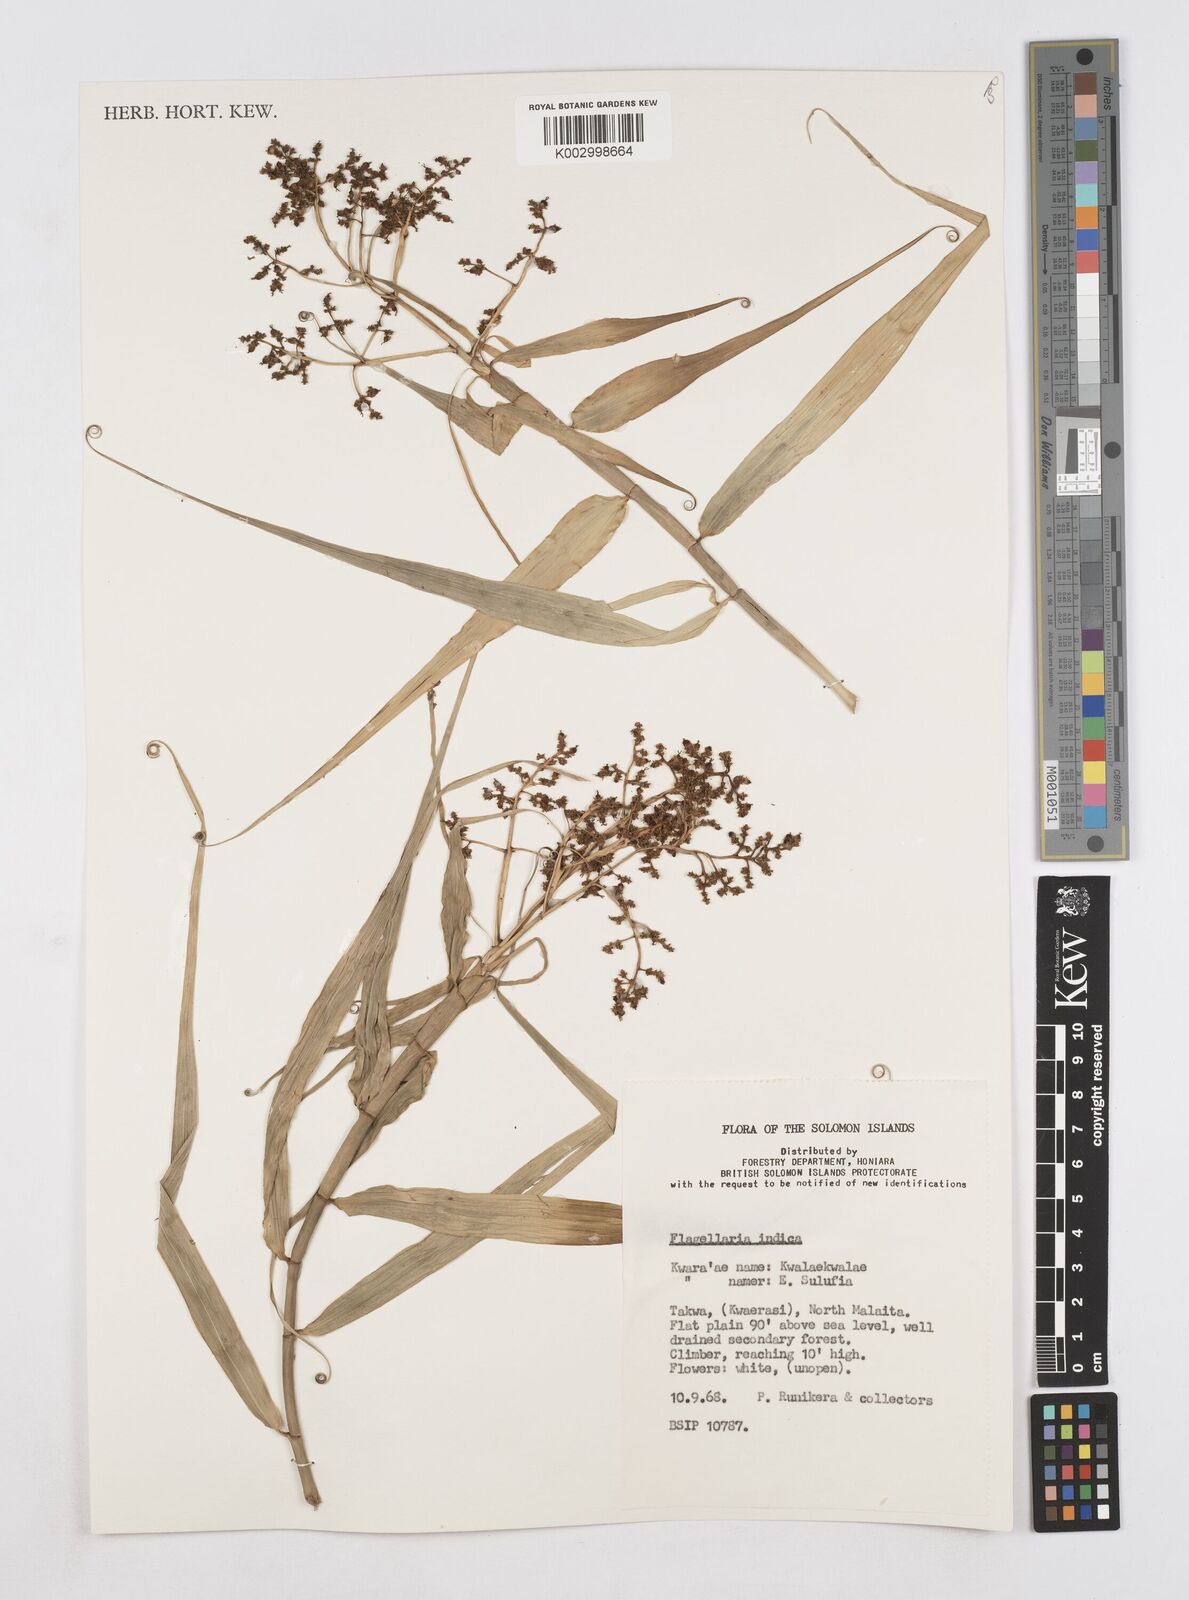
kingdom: Plantae
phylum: Tracheophyta
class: Liliopsida
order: Poales
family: Flagellariaceae
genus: Flagellaria
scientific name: Flagellaria indica
